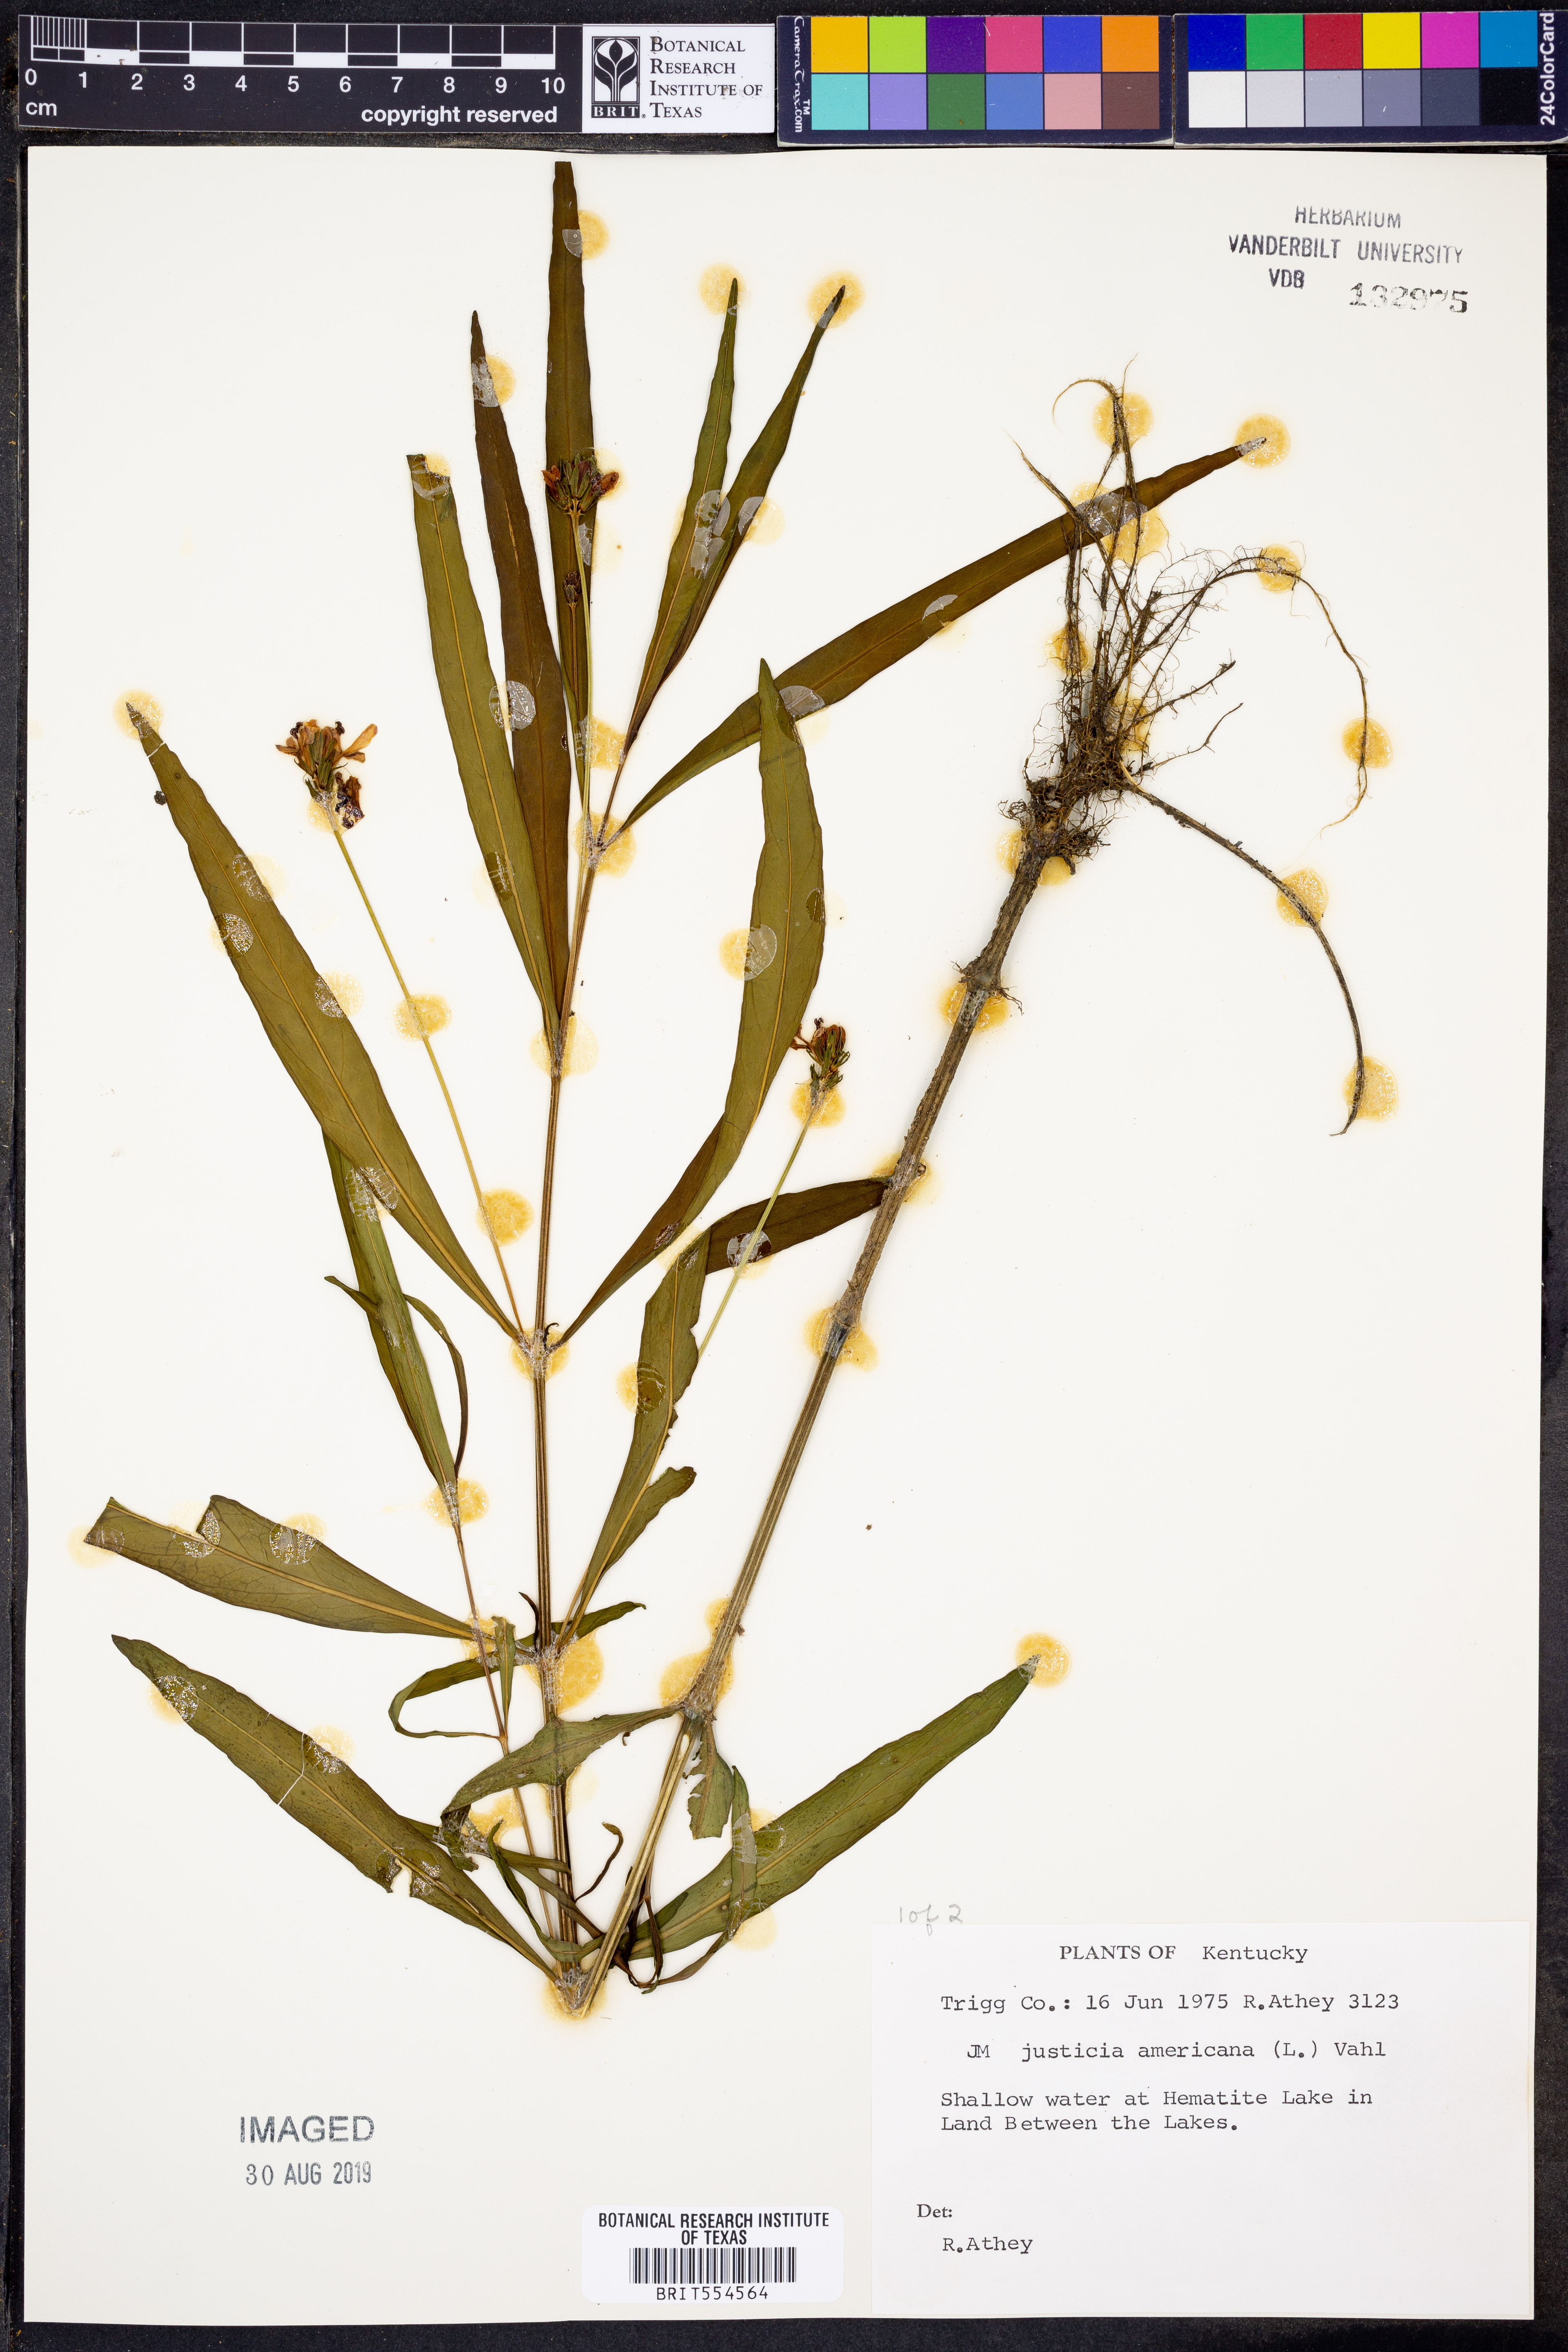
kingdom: Plantae
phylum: Tracheophyta
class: Magnoliopsida
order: Lamiales
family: Acanthaceae
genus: Dianthera
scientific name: Dianthera americana
